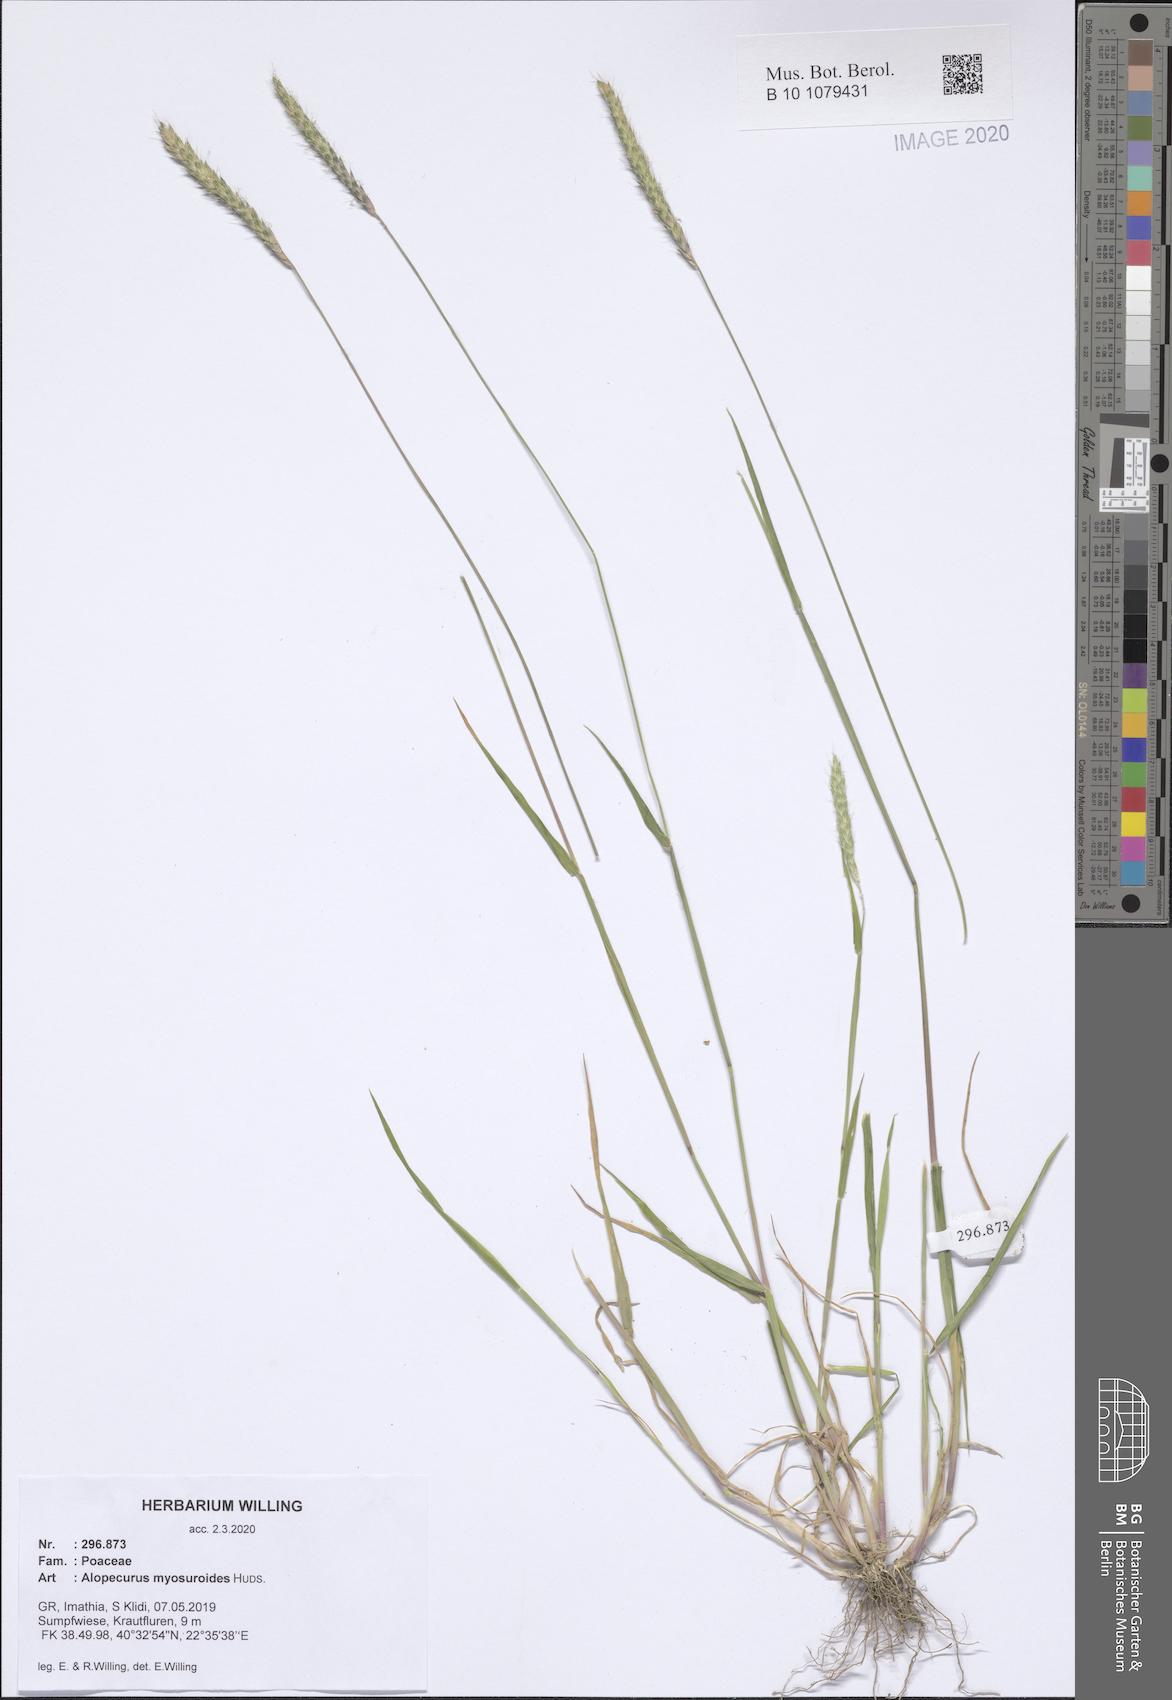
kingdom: Plantae
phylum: Tracheophyta
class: Liliopsida
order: Poales
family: Poaceae
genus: Alopecurus
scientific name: Alopecurus myosuroides
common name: Black-grass
